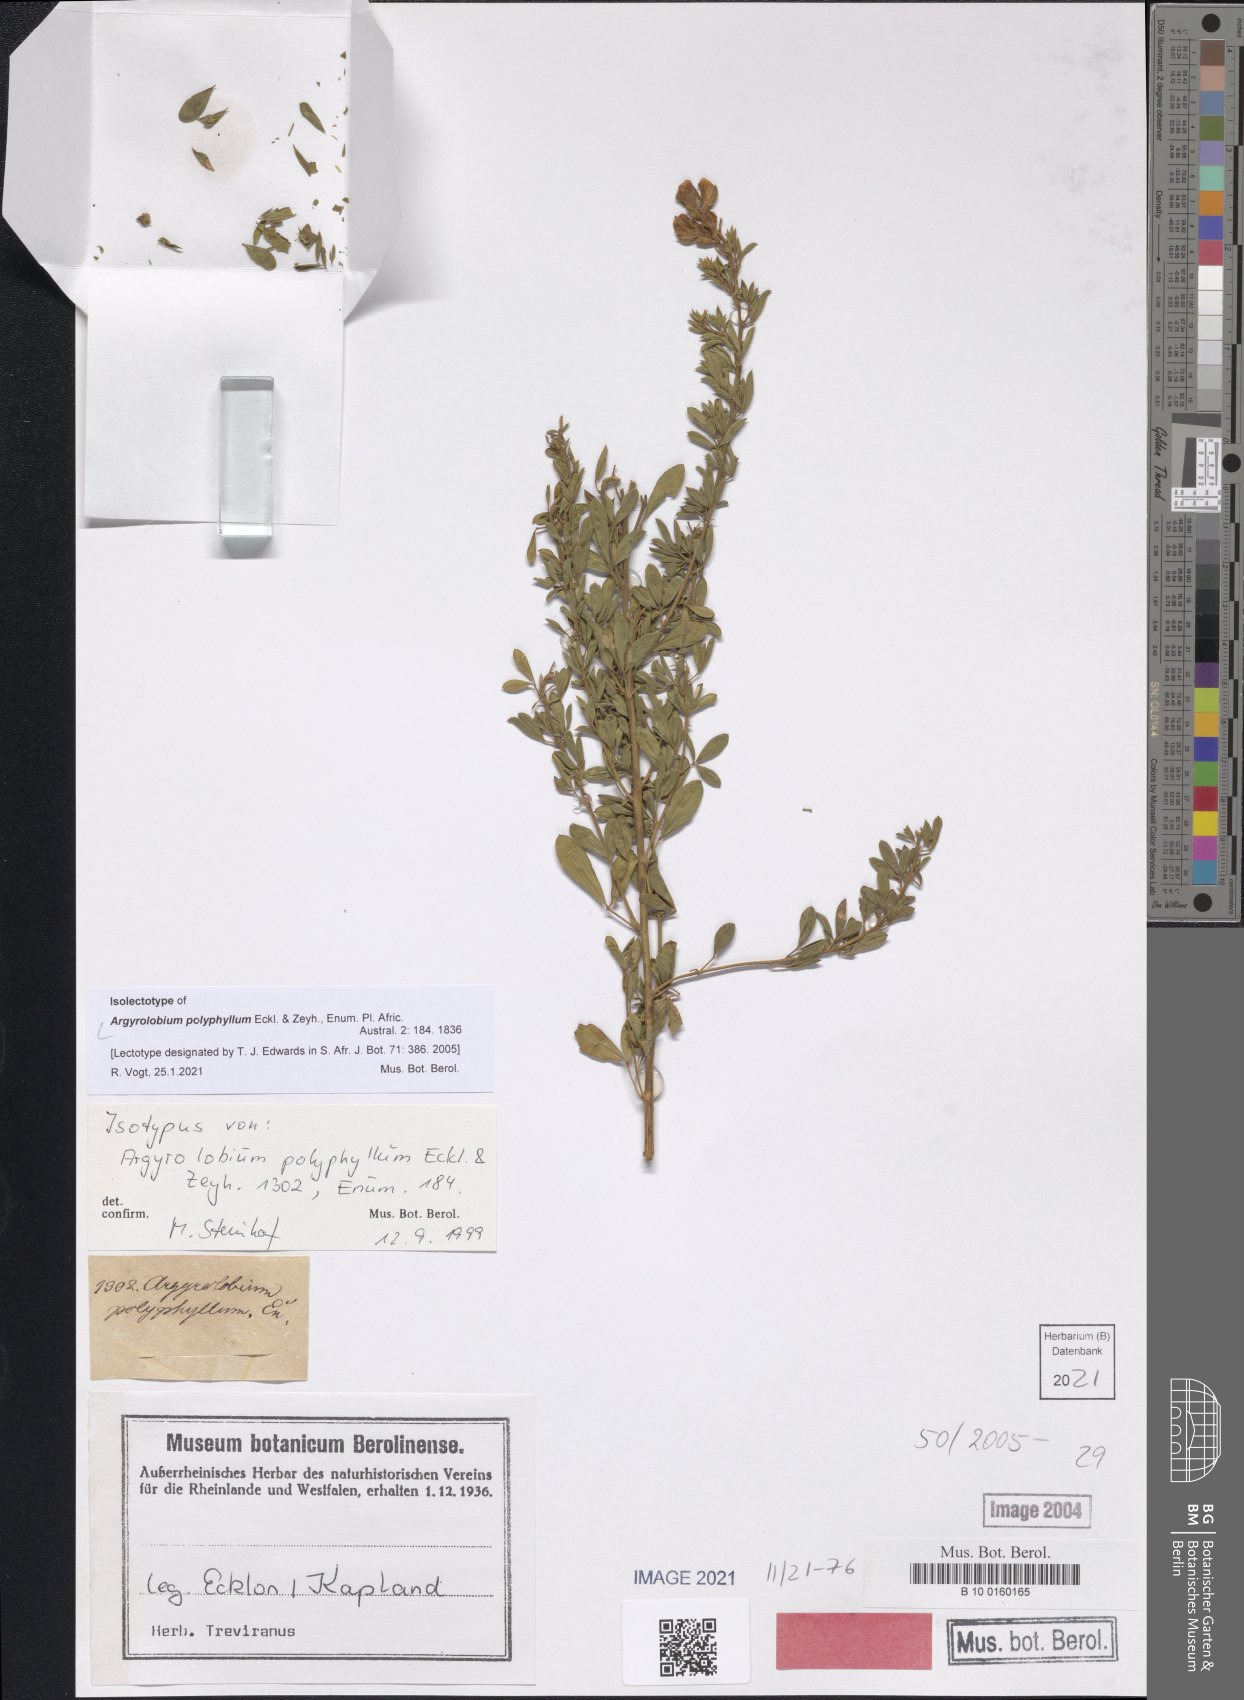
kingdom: Plantae
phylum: Tracheophyta
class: Magnoliopsida
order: Fabales
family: Fabaceae
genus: Argyrolobium
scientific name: Argyrolobium polyphyllum
